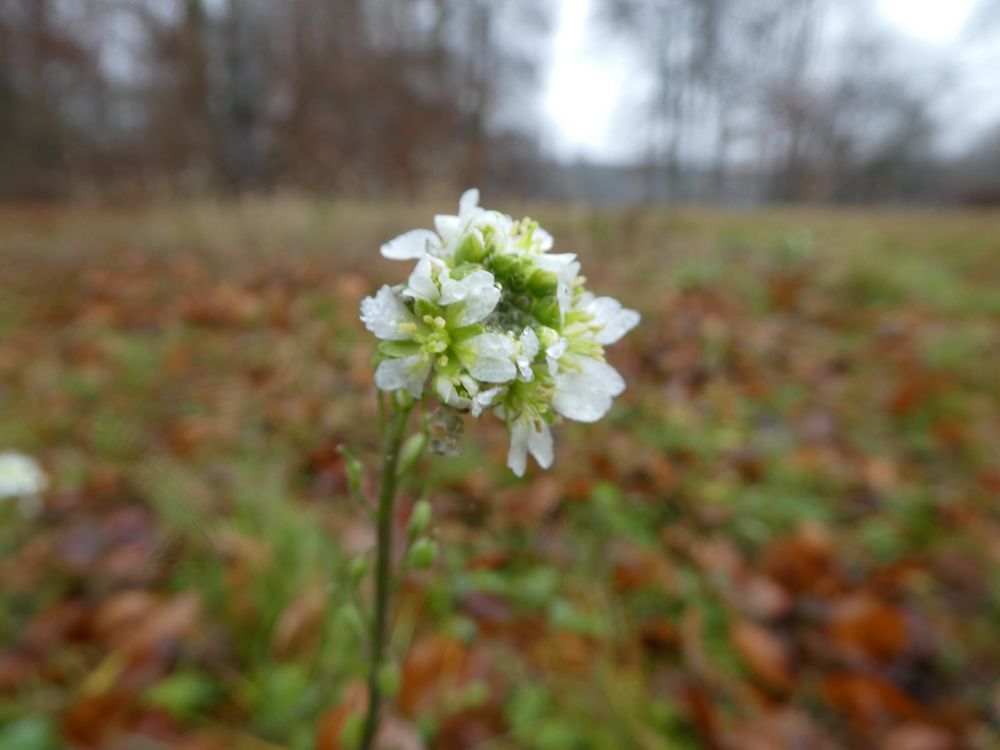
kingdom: Plantae
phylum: Tracheophyta
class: Magnoliopsida
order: Brassicales
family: Brassicaceae
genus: Berteroa
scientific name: Berteroa incana
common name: Hoary alison
